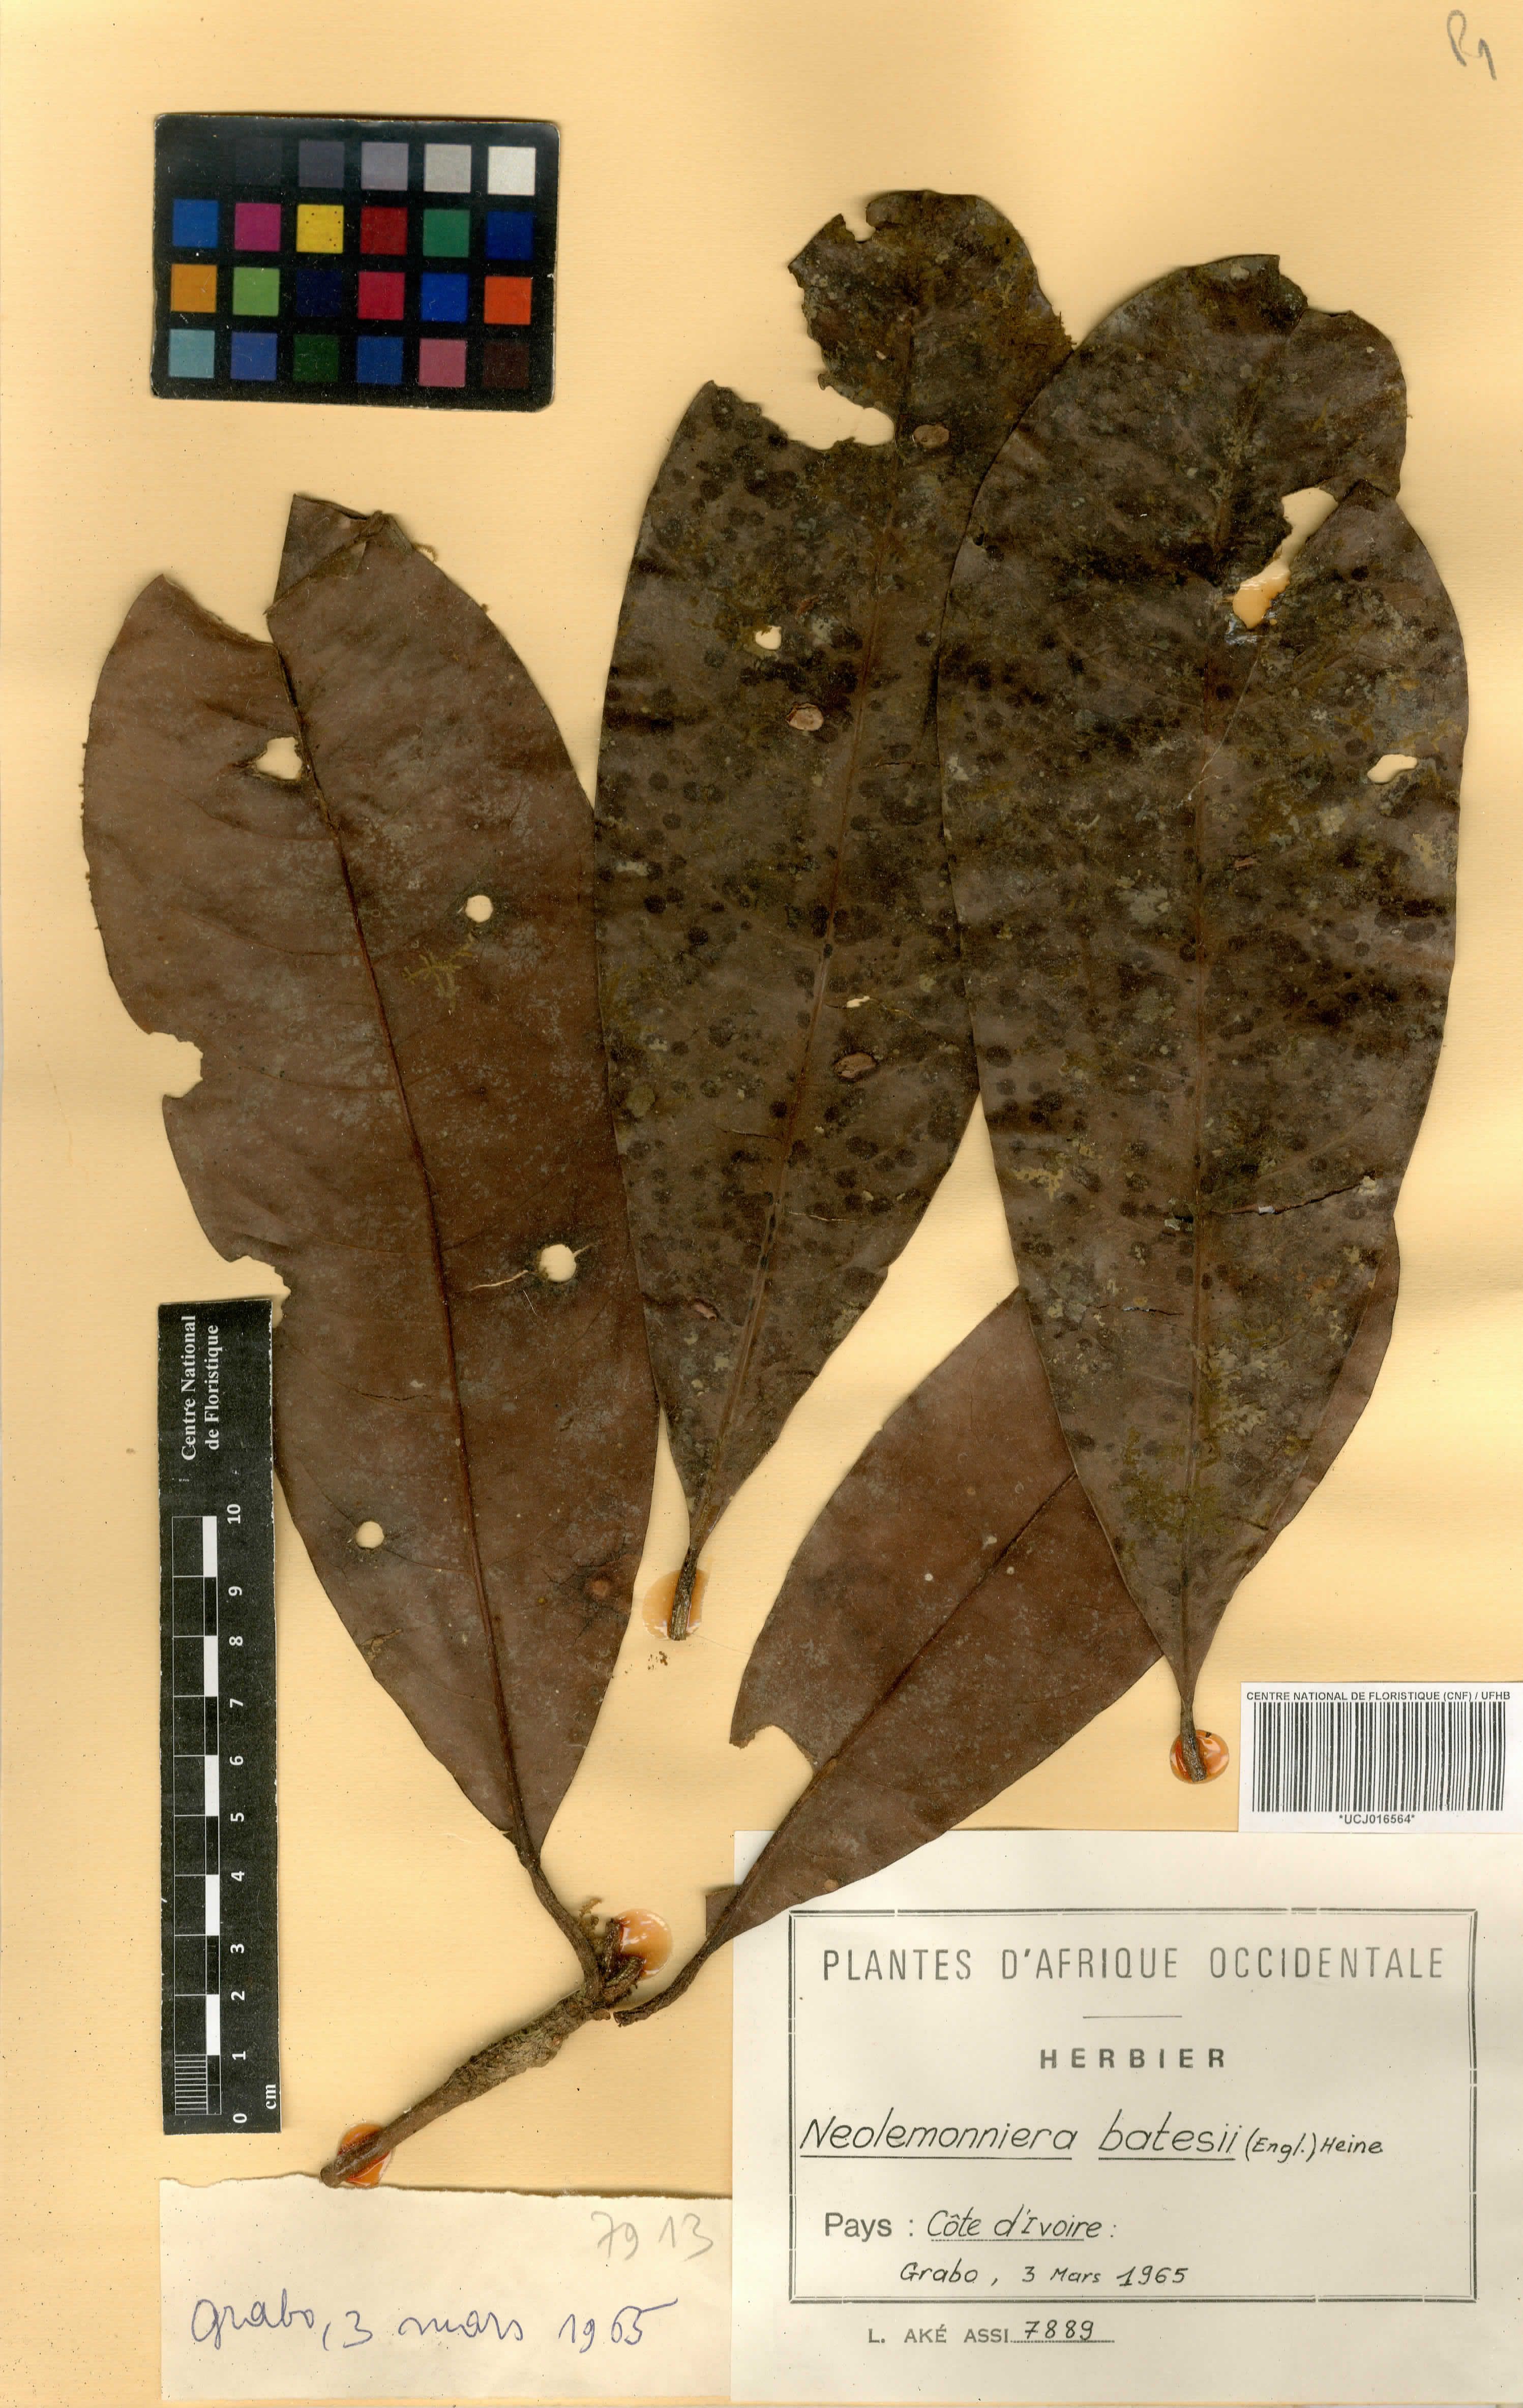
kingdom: Plantae
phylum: Tracheophyta
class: Magnoliopsida
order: Ericales
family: Sapotaceae
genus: Neolemonniera
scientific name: Neolemonniera batesii
